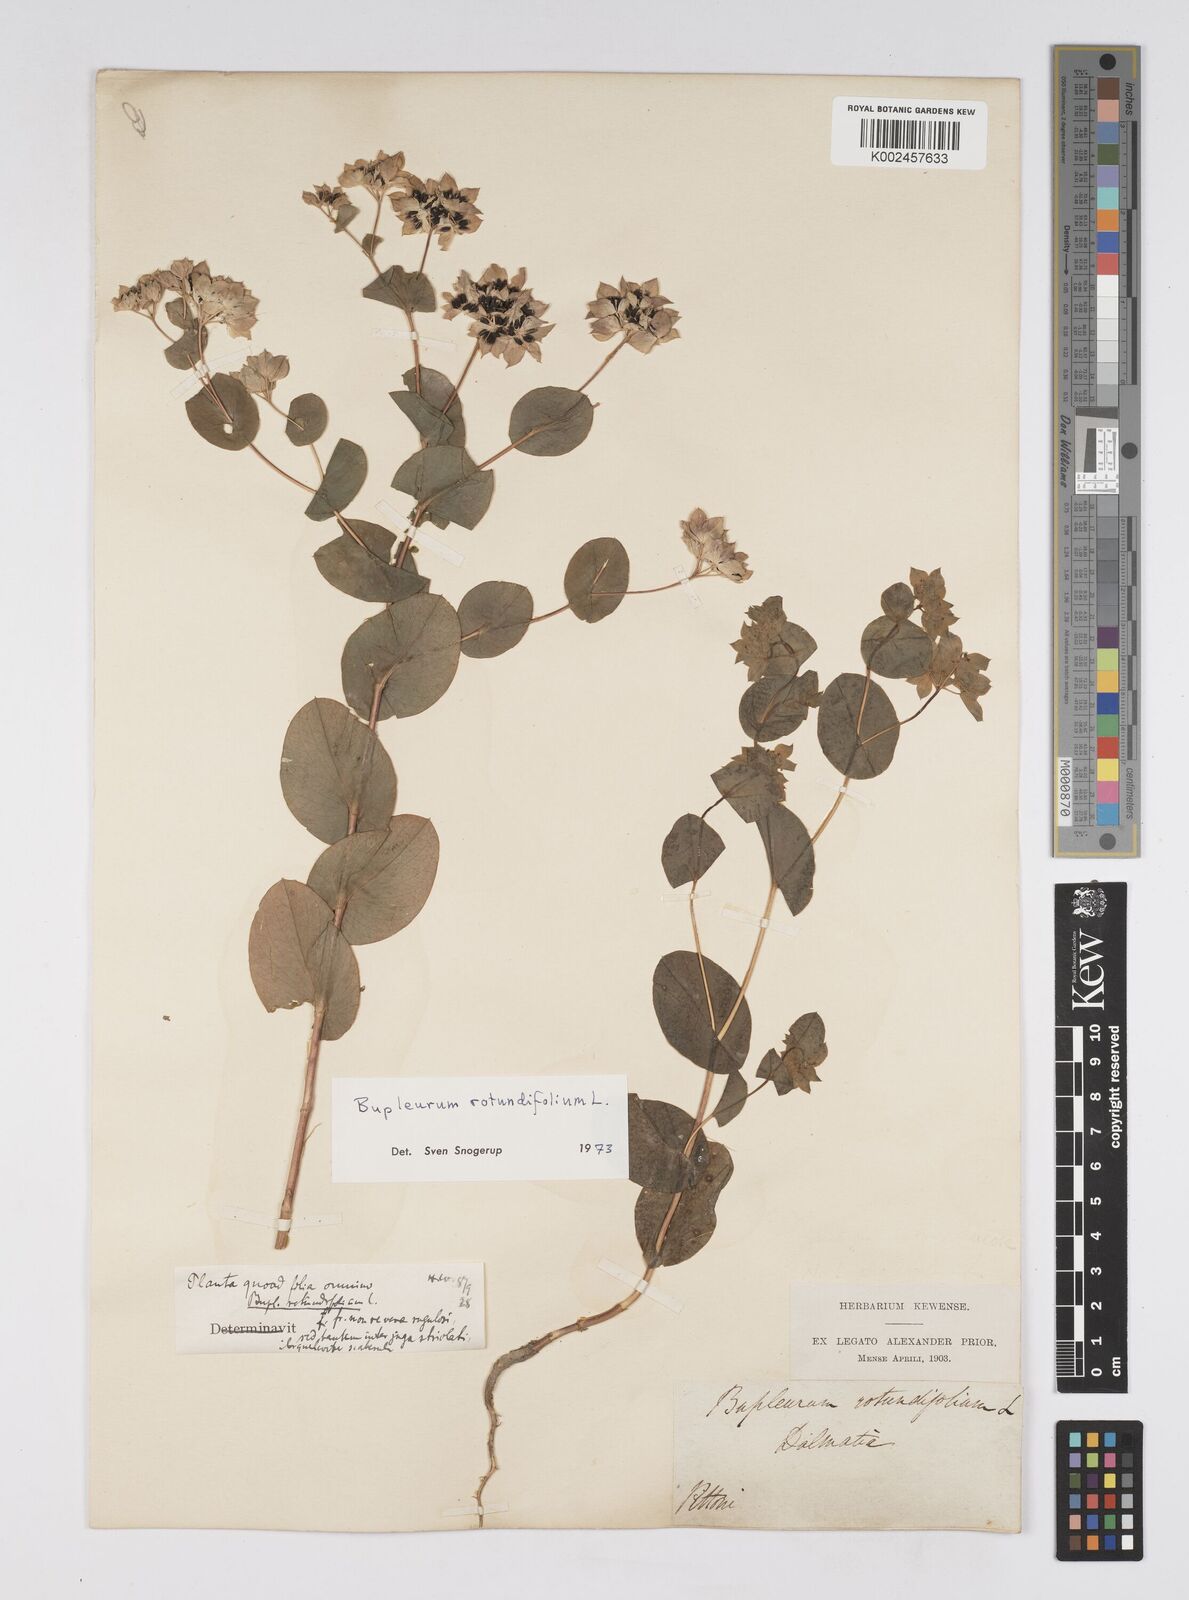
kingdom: Plantae
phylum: Tracheophyta
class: Magnoliopsida
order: Apiales
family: Apiaceae
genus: Bupleurum
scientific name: Bupleurum rotundifolium
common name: Thorow-wax
